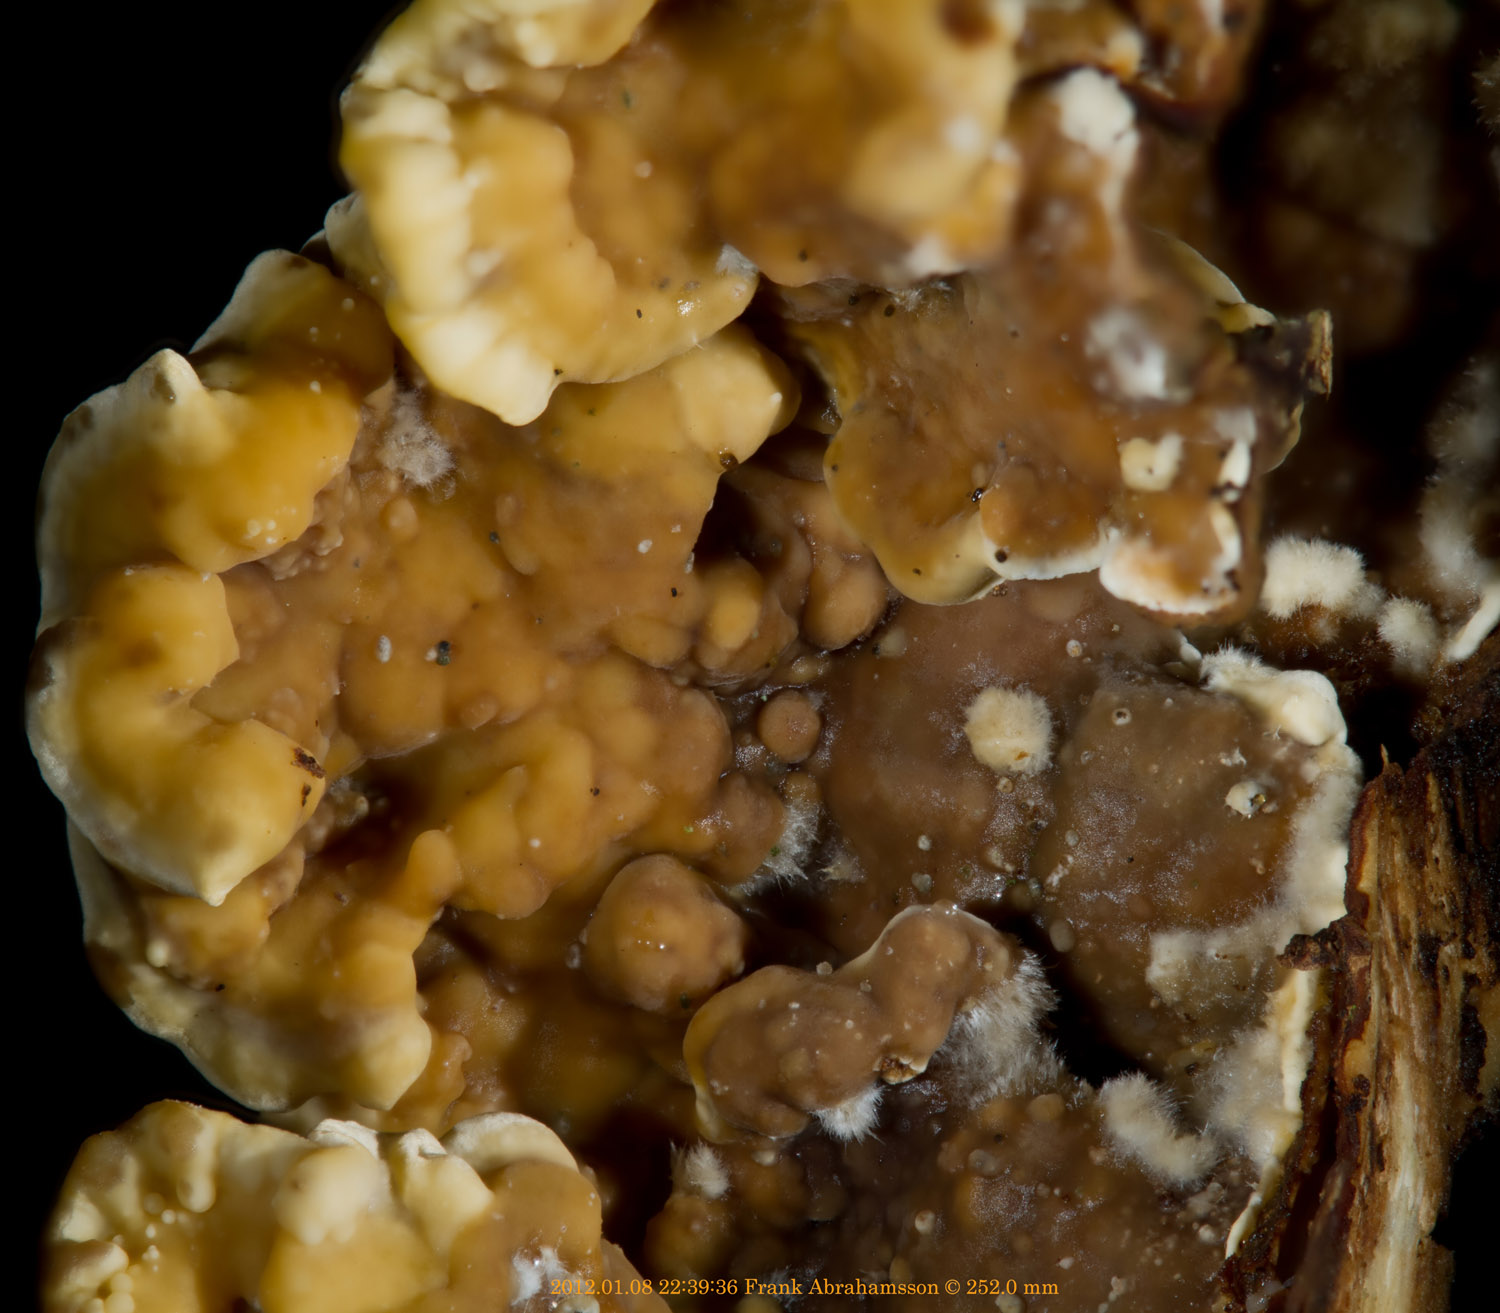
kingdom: Fungi
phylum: Basidiomycota
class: Agaricomycetes
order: Russulales
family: Stereaceae
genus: Stereum
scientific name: Stereum hirsutum
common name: håret lædersvamp
